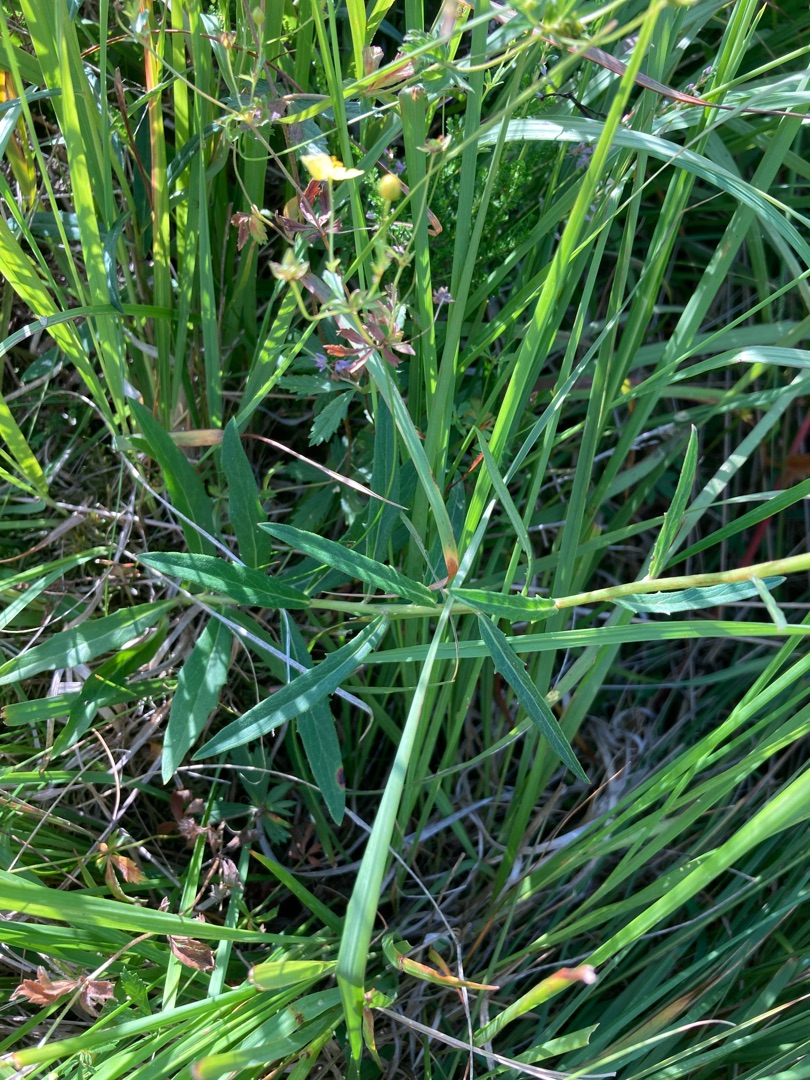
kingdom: Plantae
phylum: Tracheophyta
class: Magnoliopsida
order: Asterales
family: Asteraceae
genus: Hieracioides
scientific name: Hieracioides
